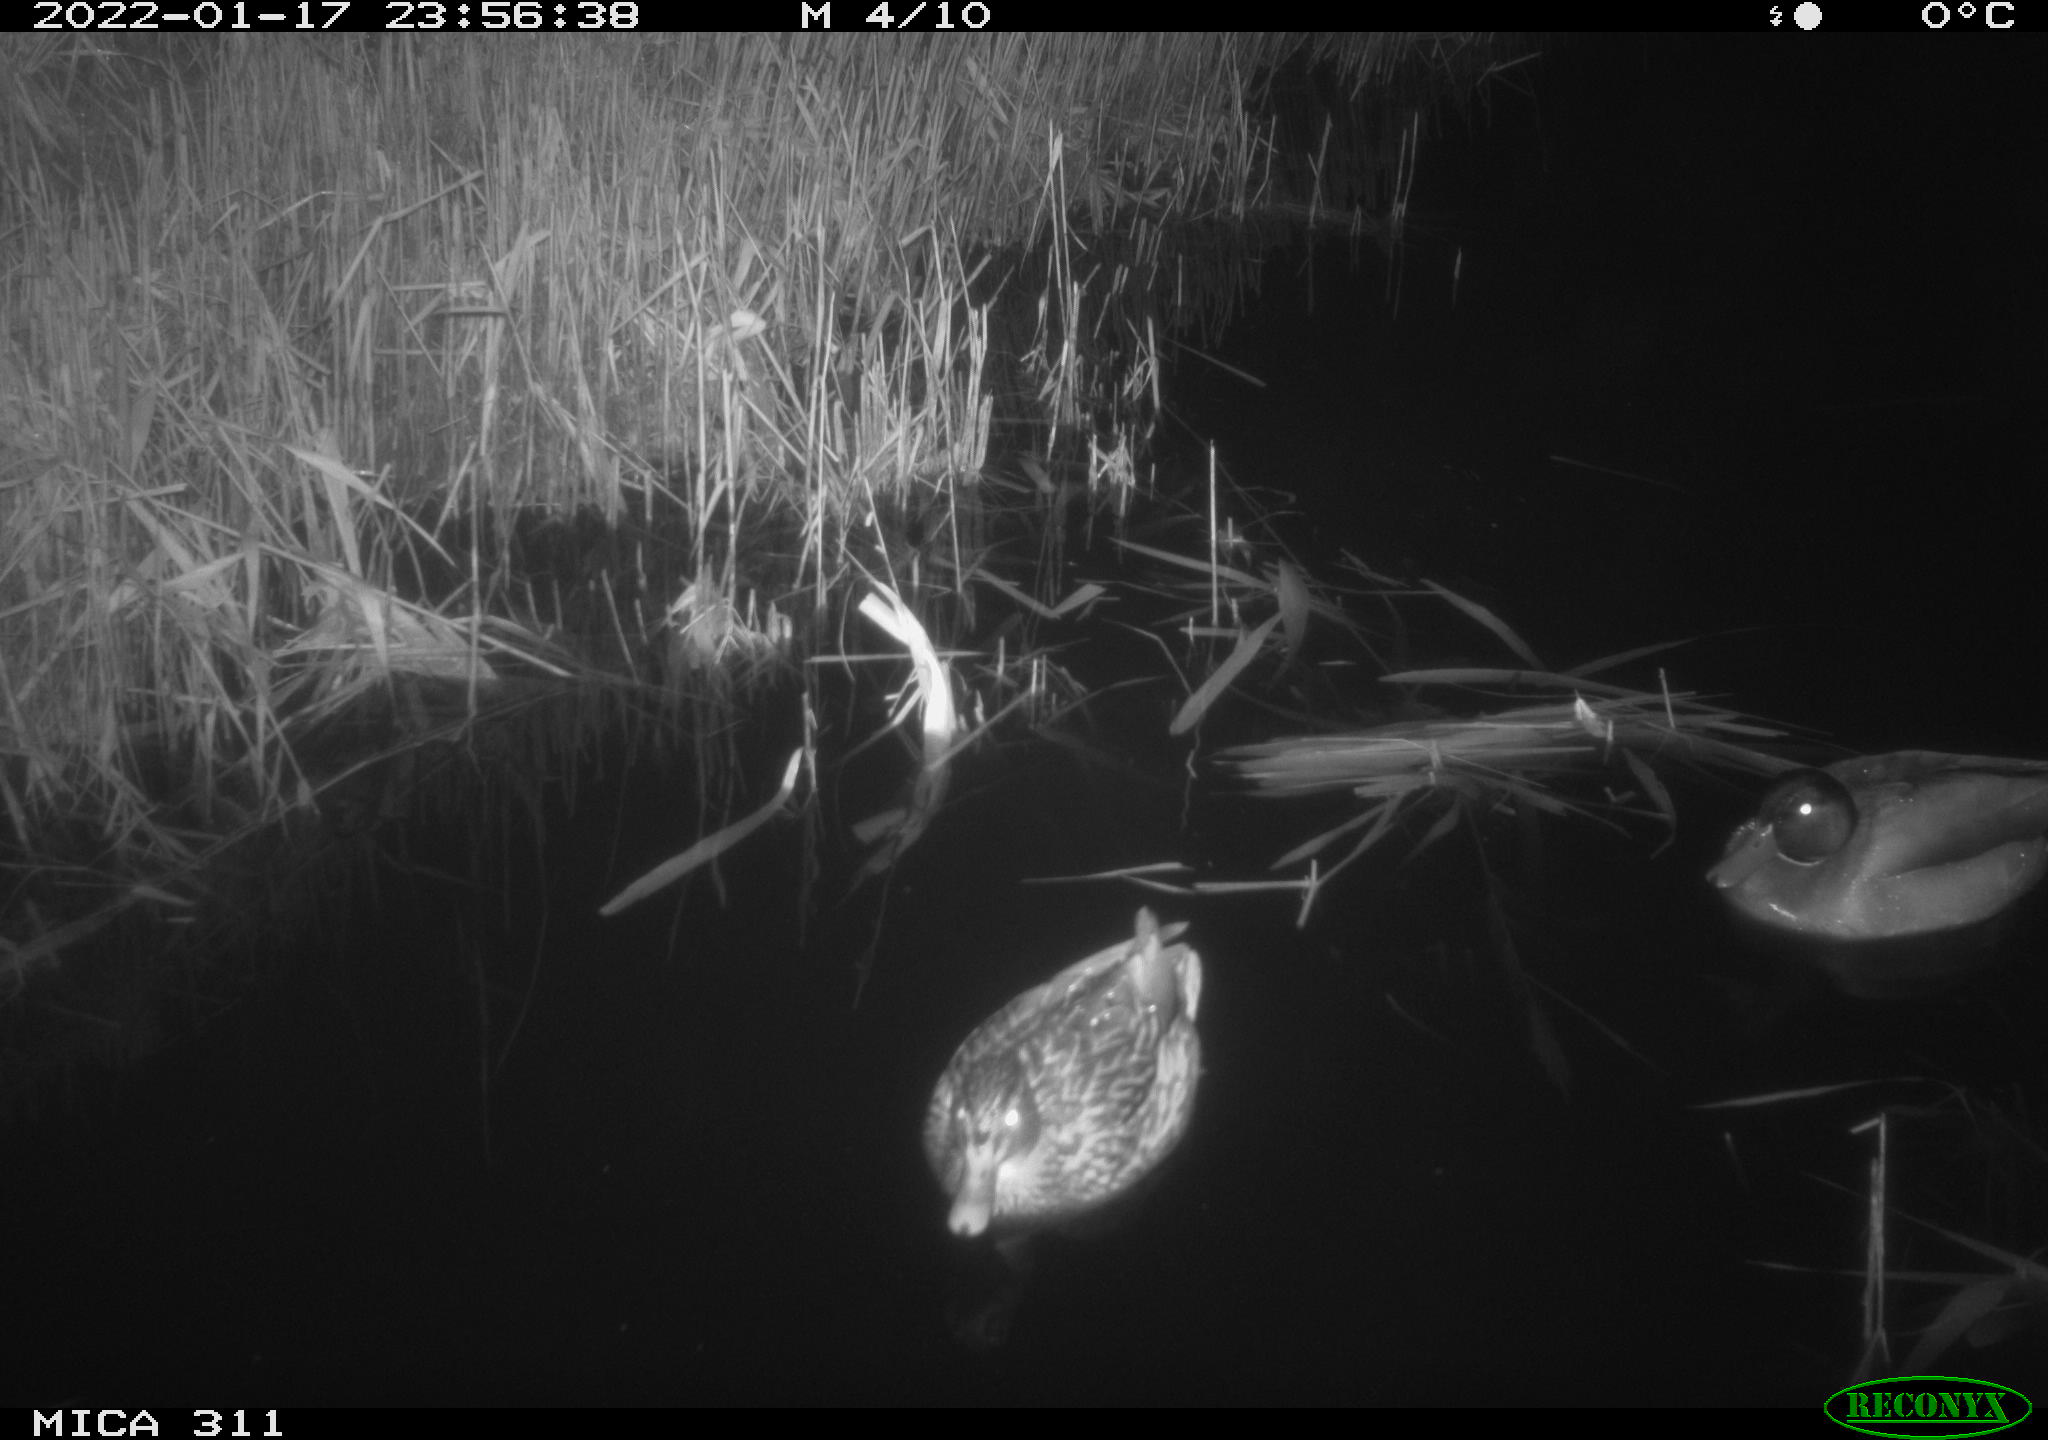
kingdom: Animalia
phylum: Chordata
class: Aves
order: Anseriformes
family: Anatidae
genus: Anas
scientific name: Anas
